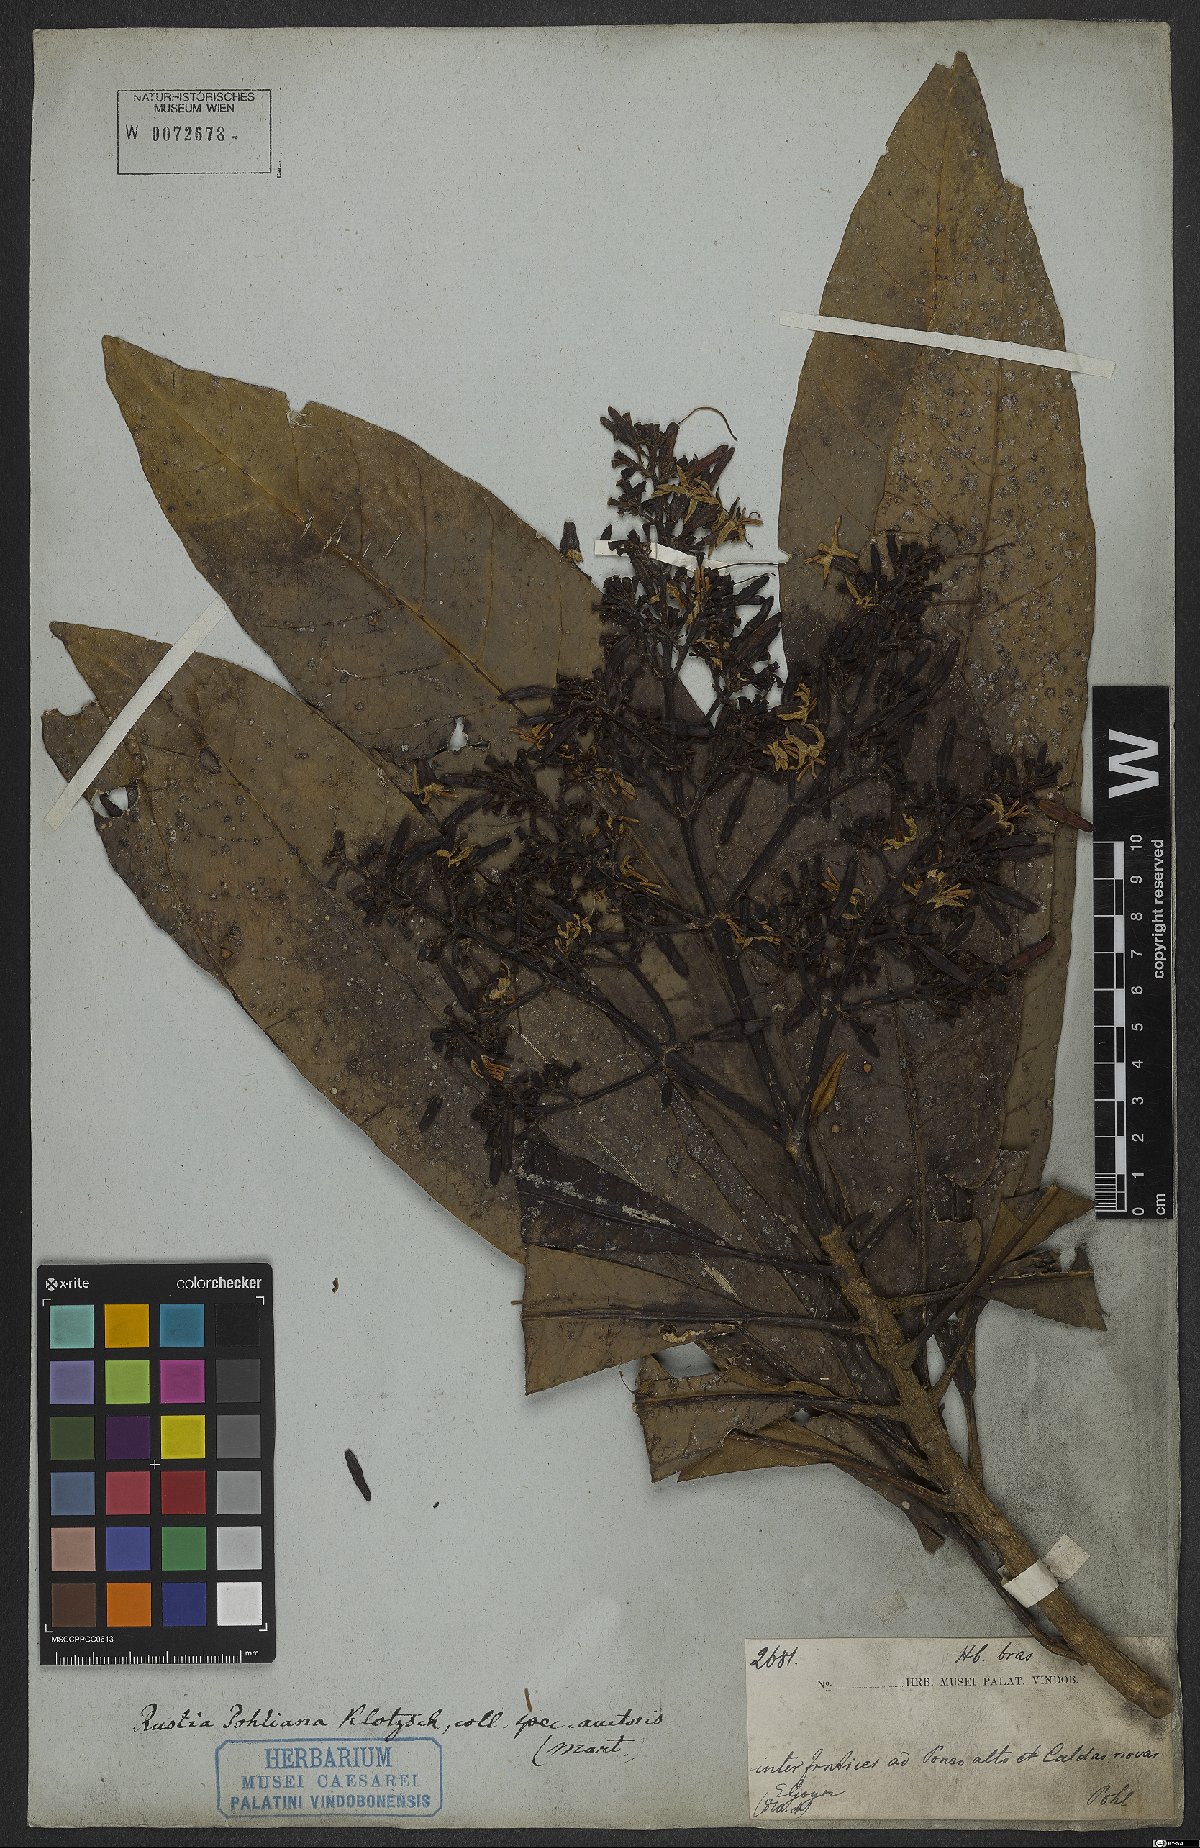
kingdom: Plantae
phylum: Tracheophyta
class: Magnoliopsida
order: Gentianales
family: Rubiaceae
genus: Rustia
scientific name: Rustia formosa
